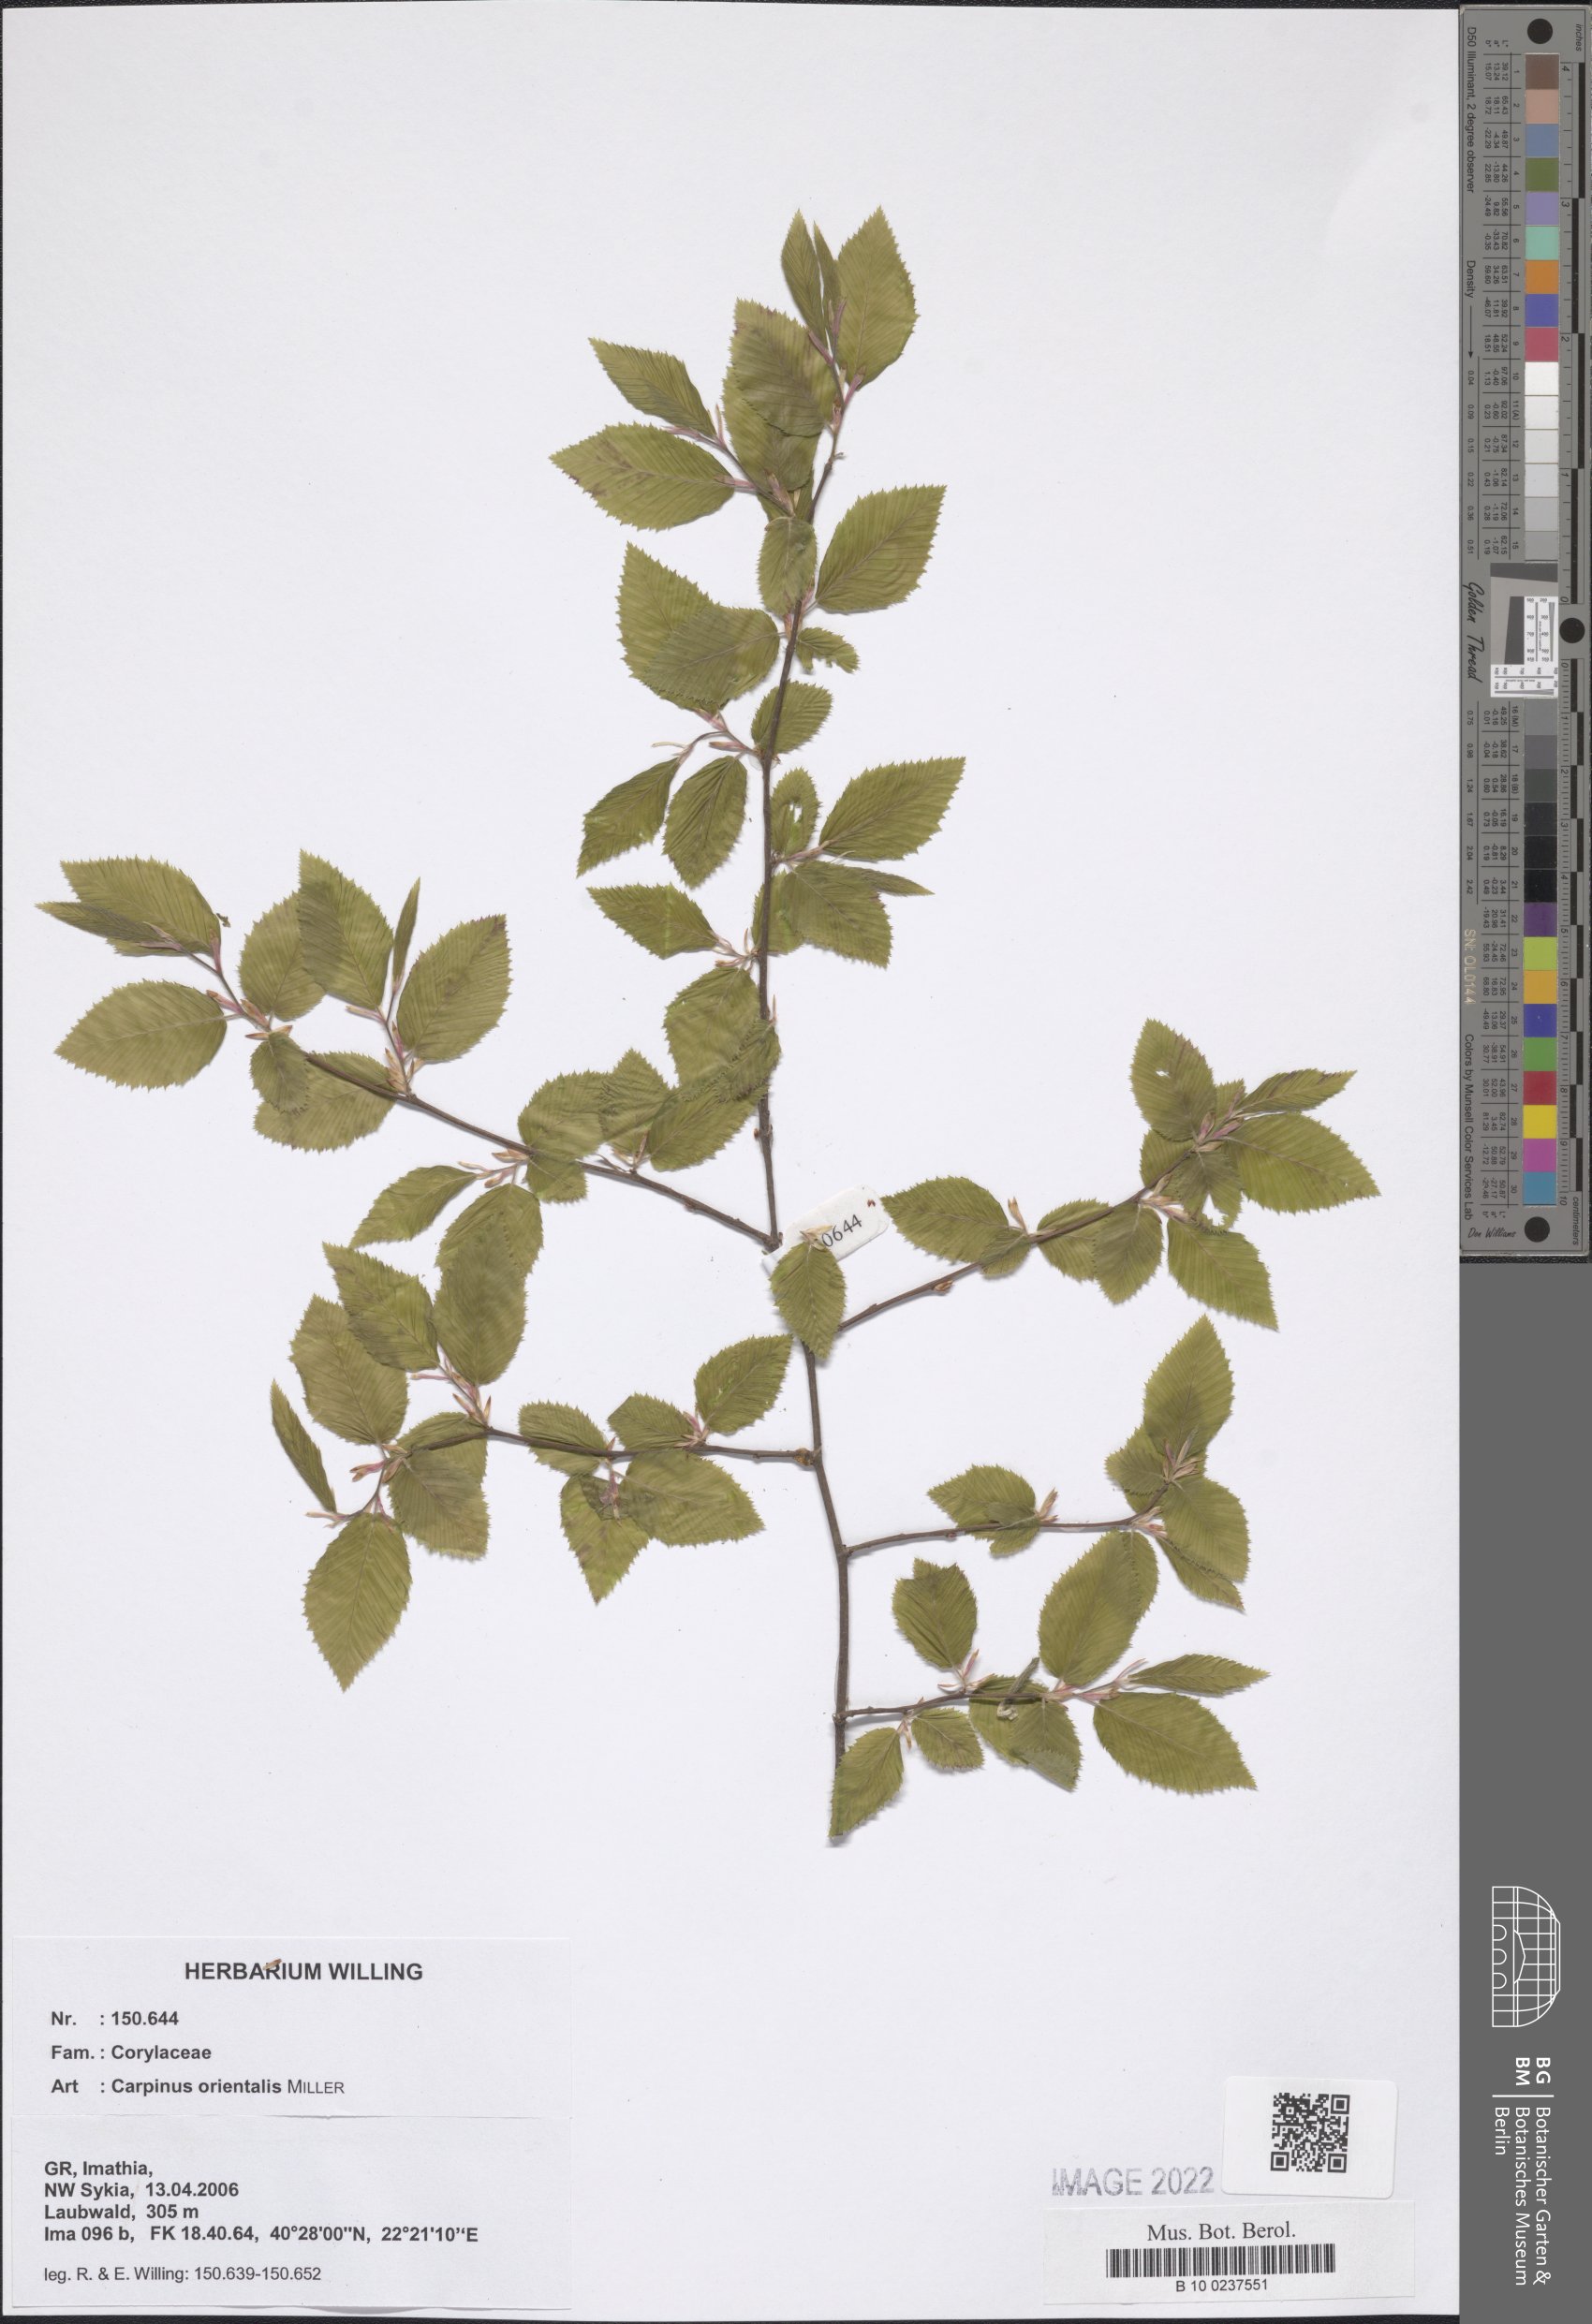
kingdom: Plantae
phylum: Tracheophyta
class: Magnoliopsida
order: Fagales
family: Betulaceae
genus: Carpinus
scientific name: Carpinus orientalis
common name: Eastern hornbeam
